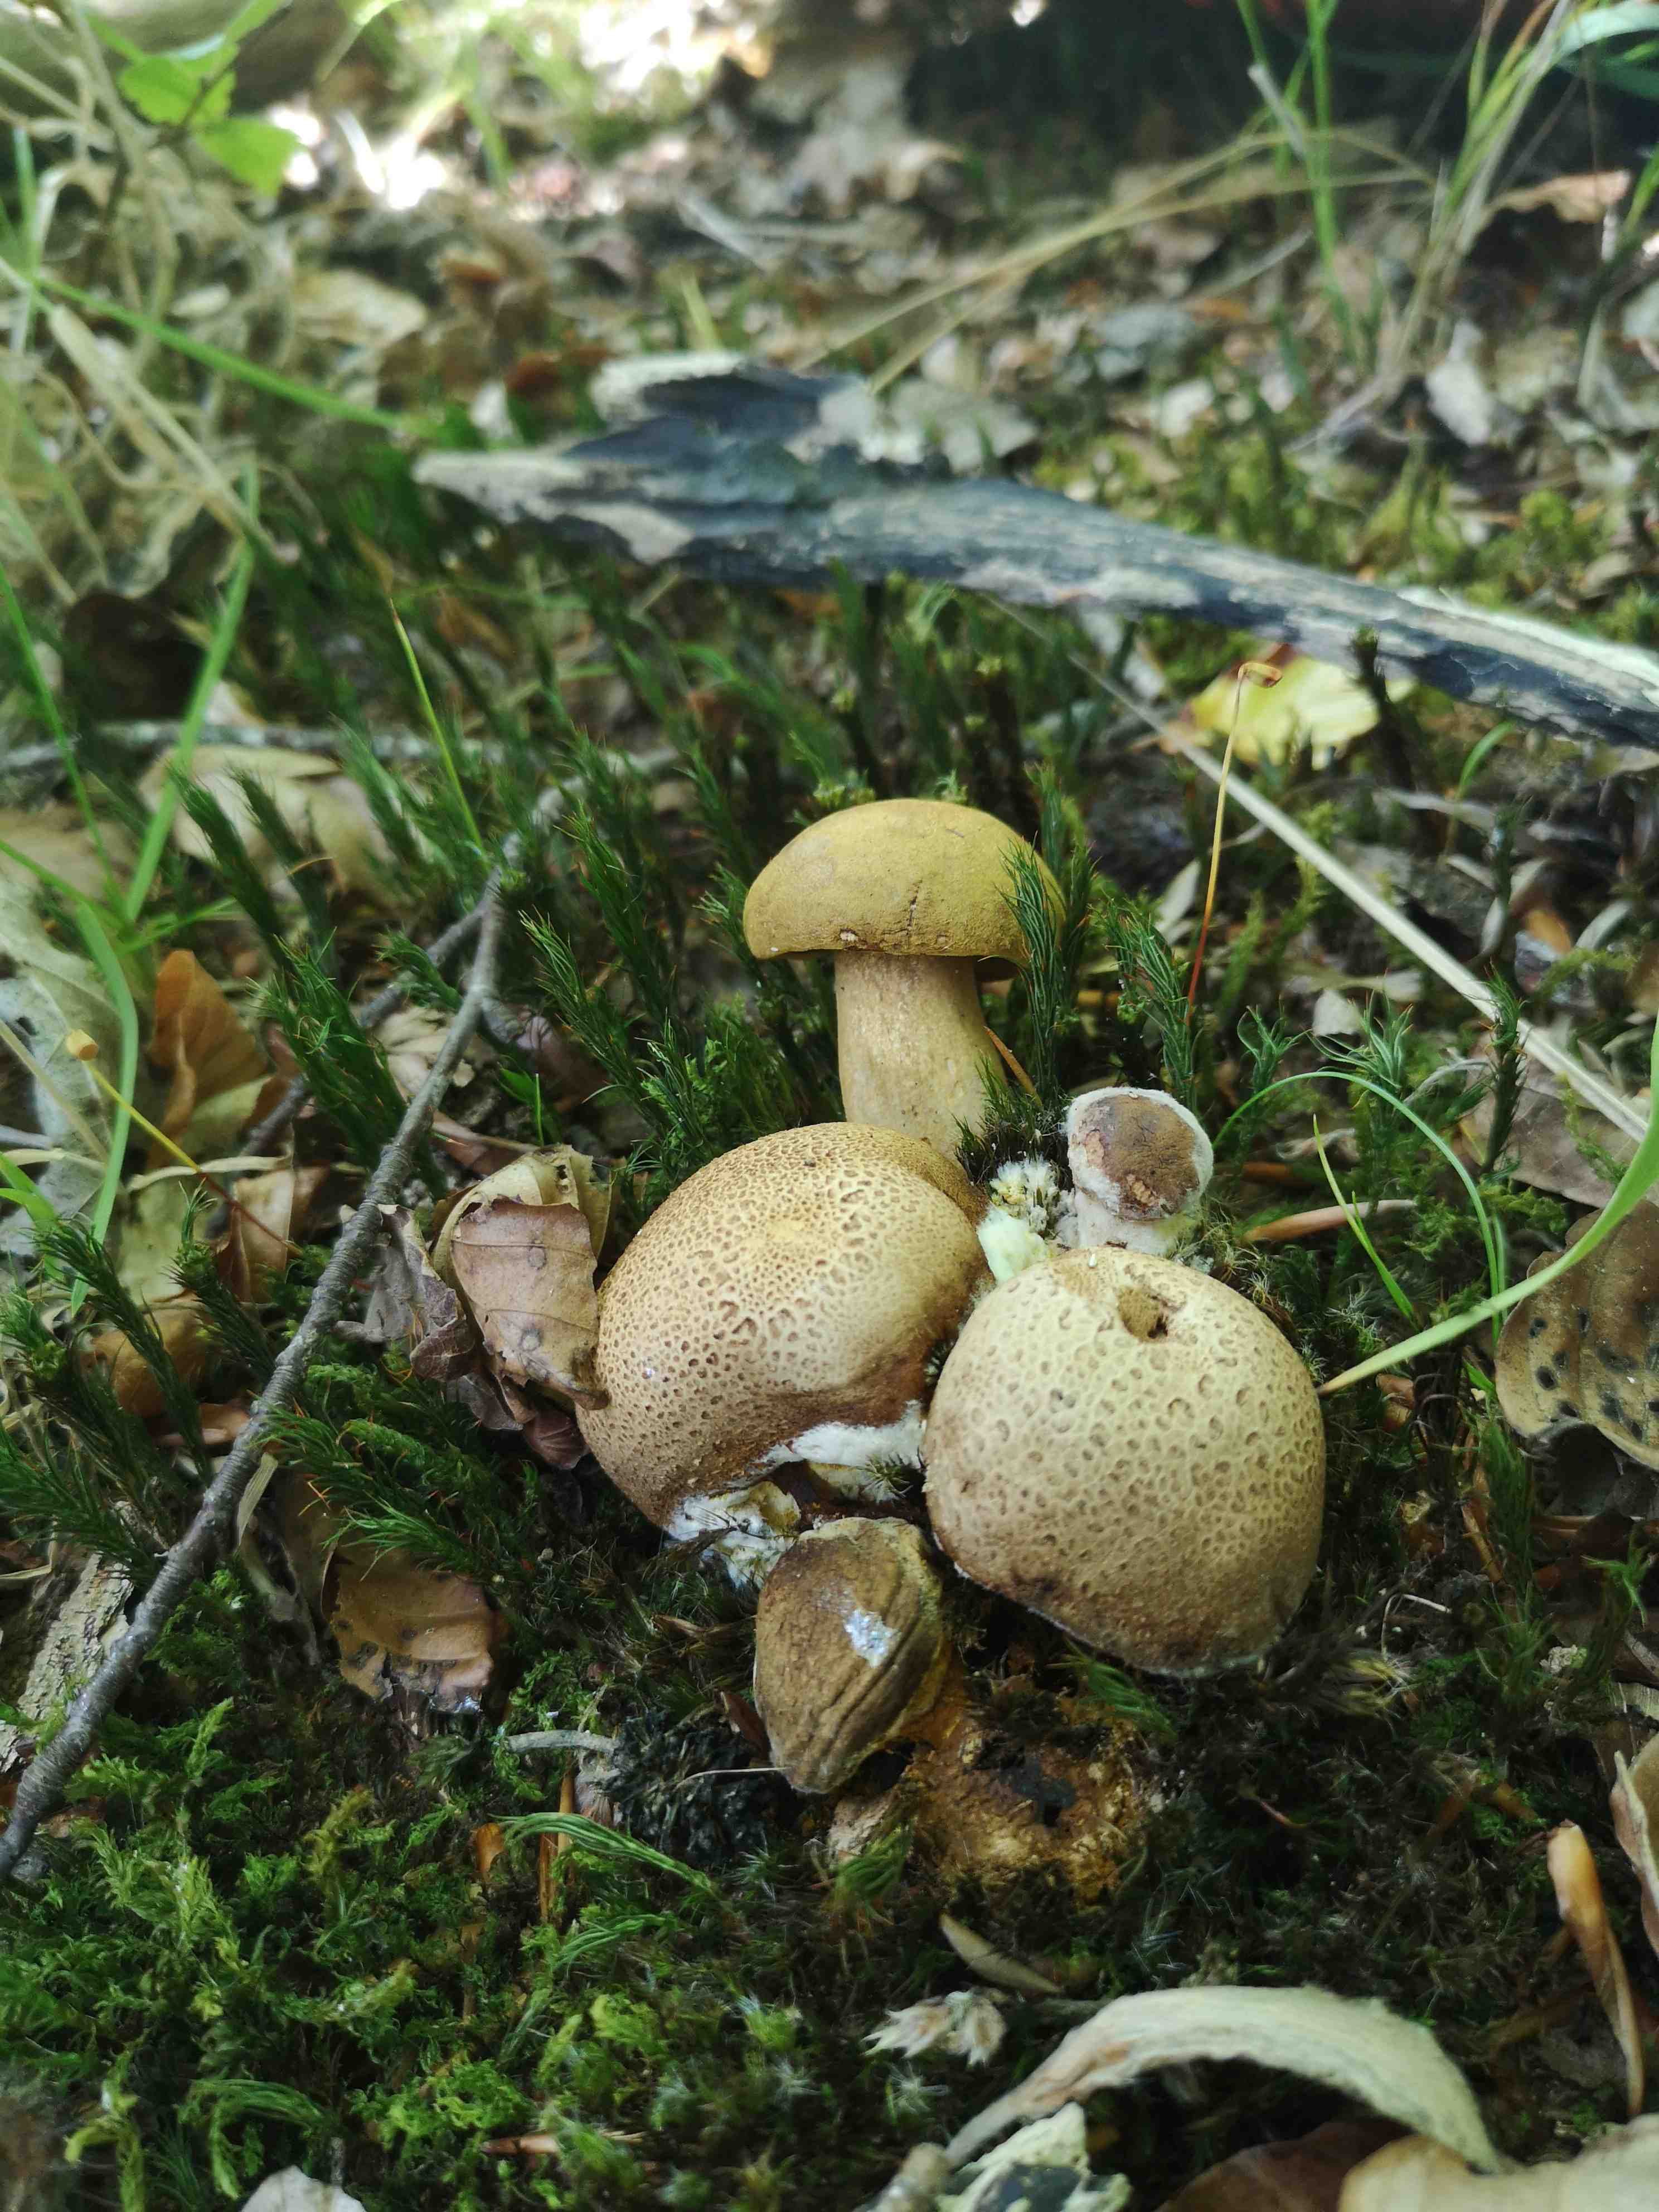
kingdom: Fungi
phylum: Basidiomycota
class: Agaricomycetes
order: Boletales
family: Boletaceae
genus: Pseudoboletus
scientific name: Pseudoboletus parasiticus
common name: snyltende rørhat
